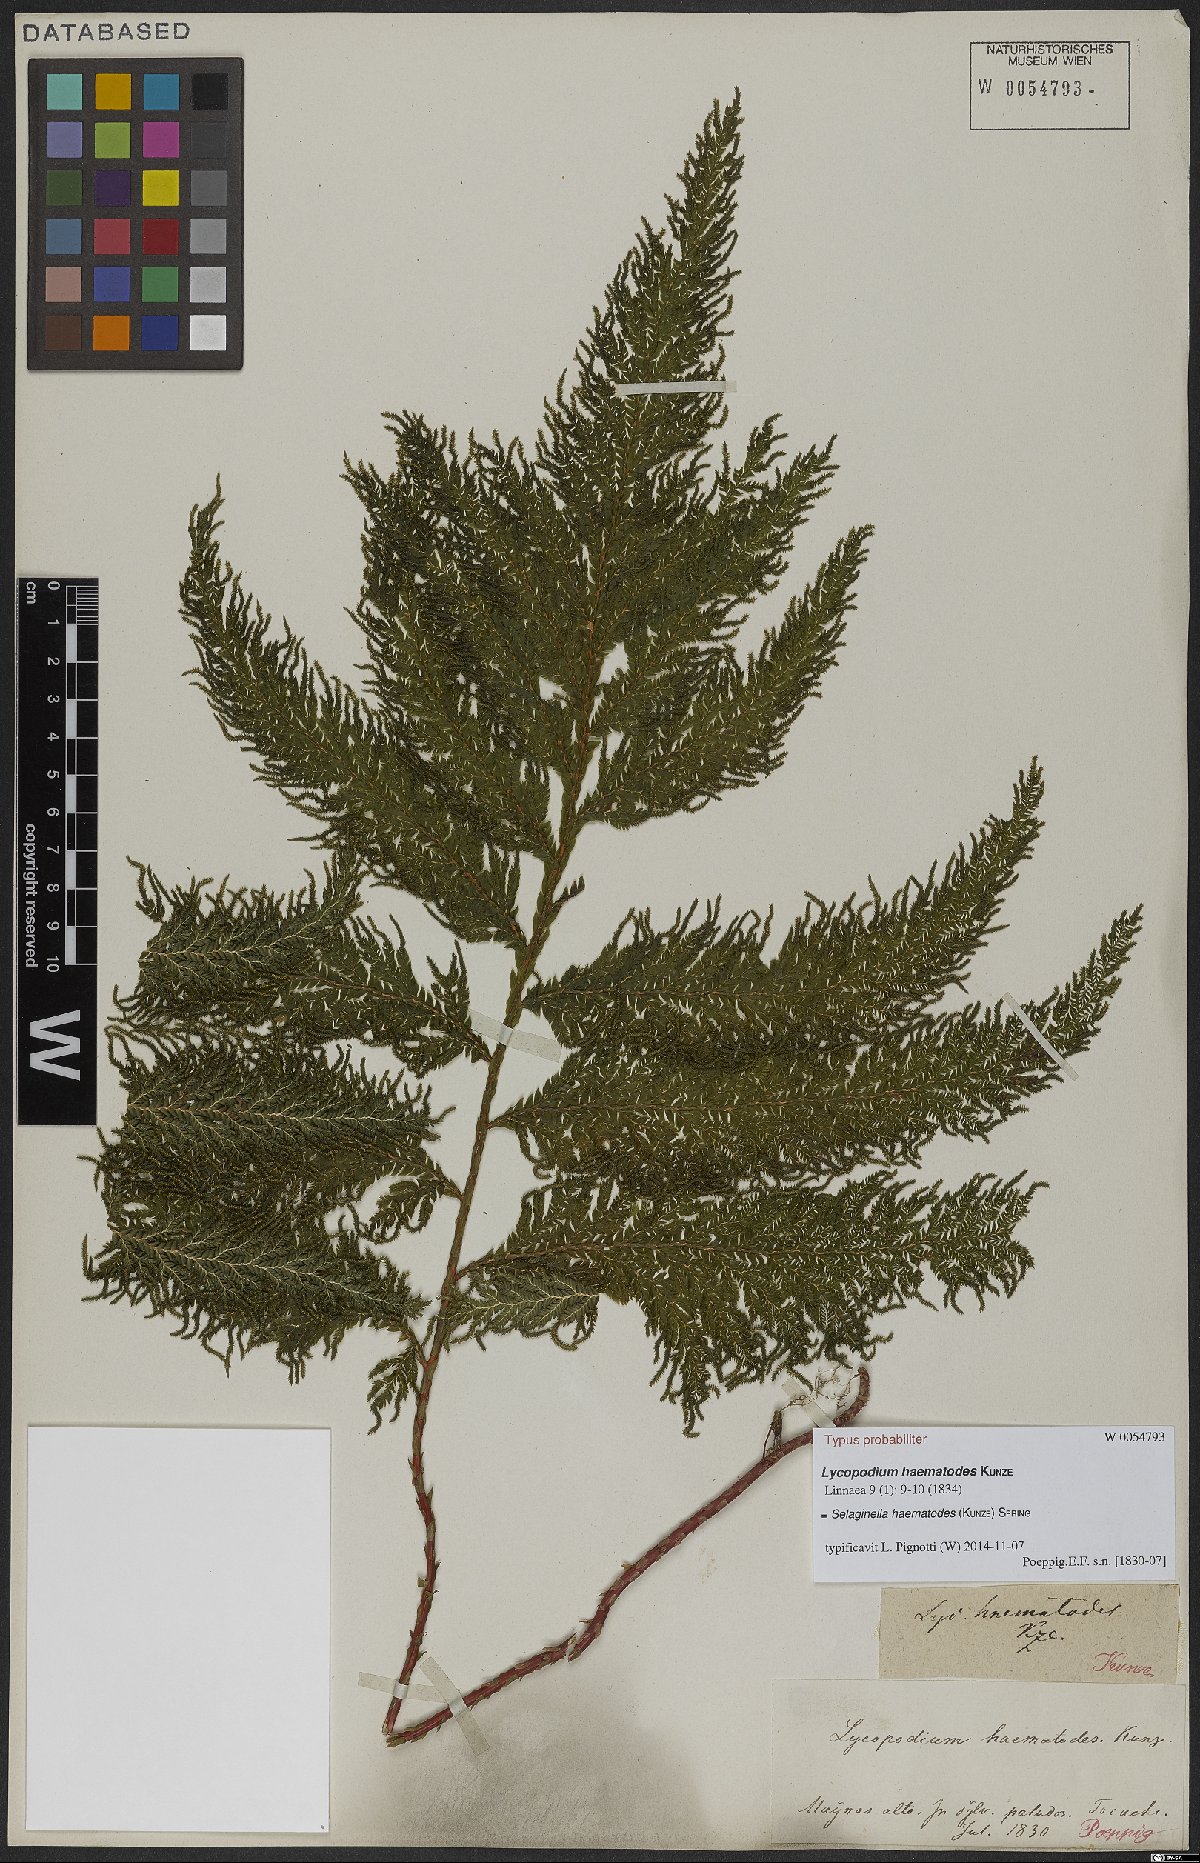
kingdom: Plantae
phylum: Tracheophyta
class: Lycopodiopsida
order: Selaginellales
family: Selaginellaceae
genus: Selaginella
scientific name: Selaginella haematodes
